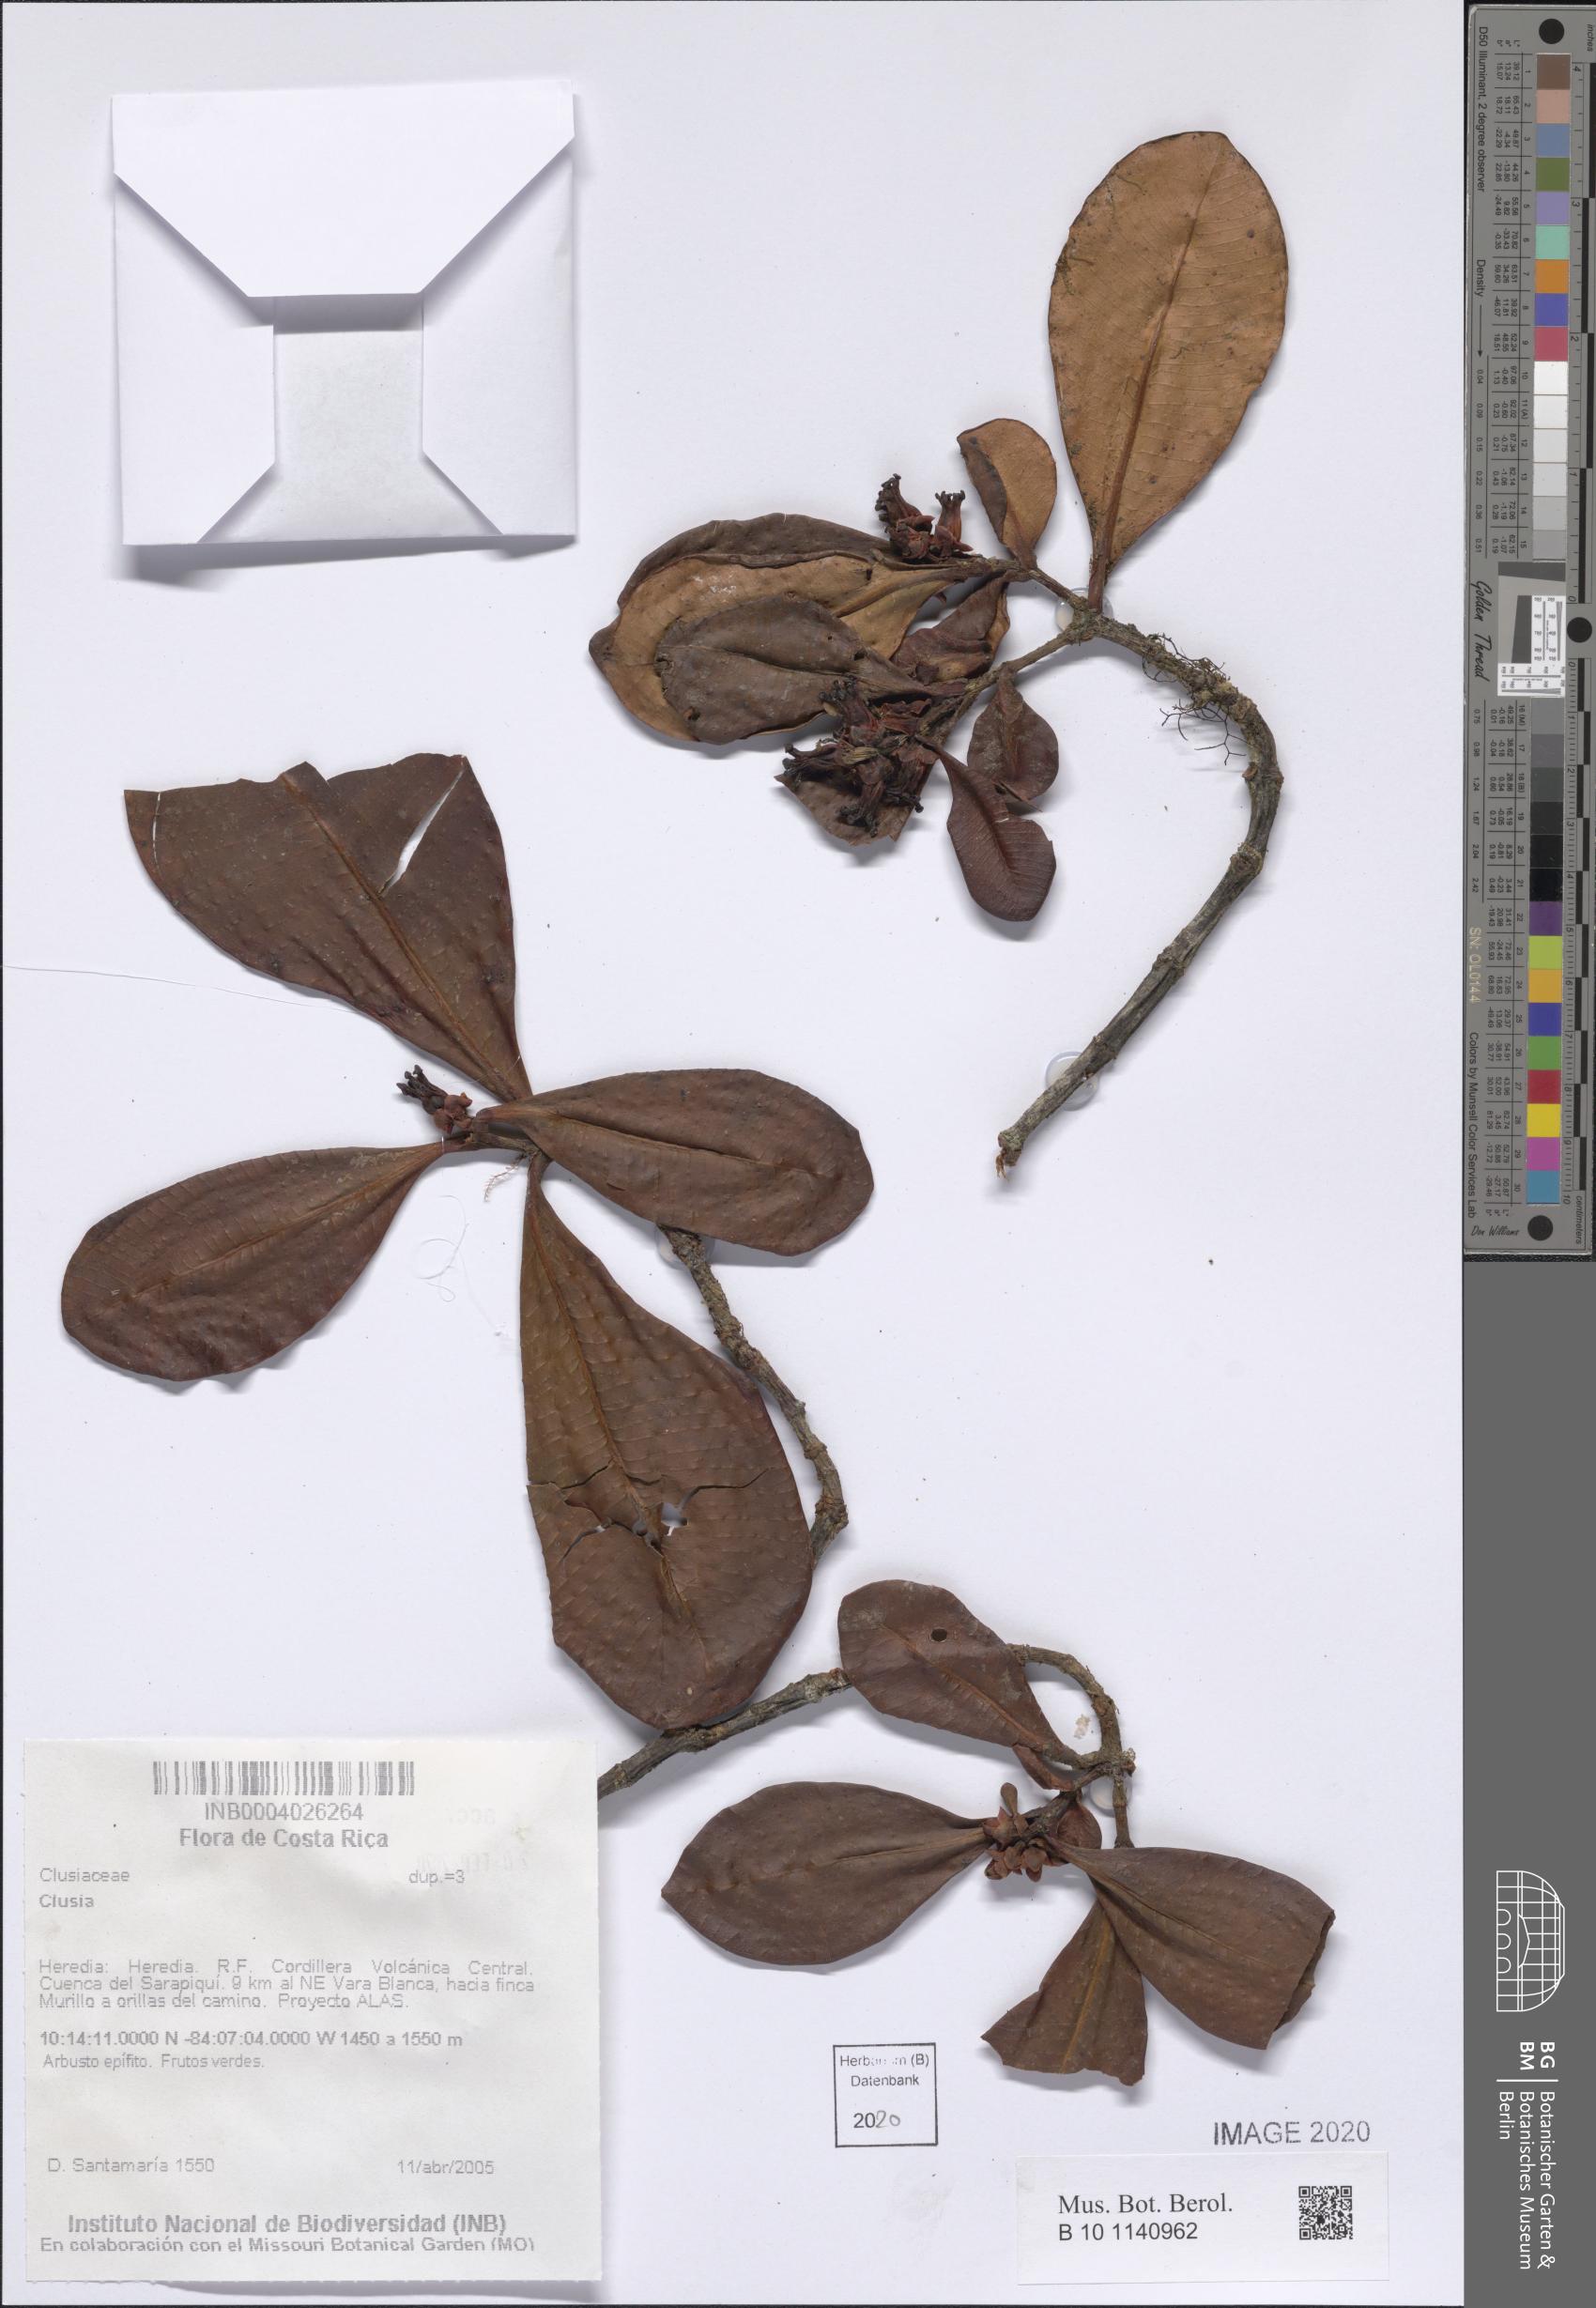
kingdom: Plantae
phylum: Tracheophyta
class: Magnoliopsida
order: Malpighiales
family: Clusiaceae
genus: Clusia
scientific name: Clusia
